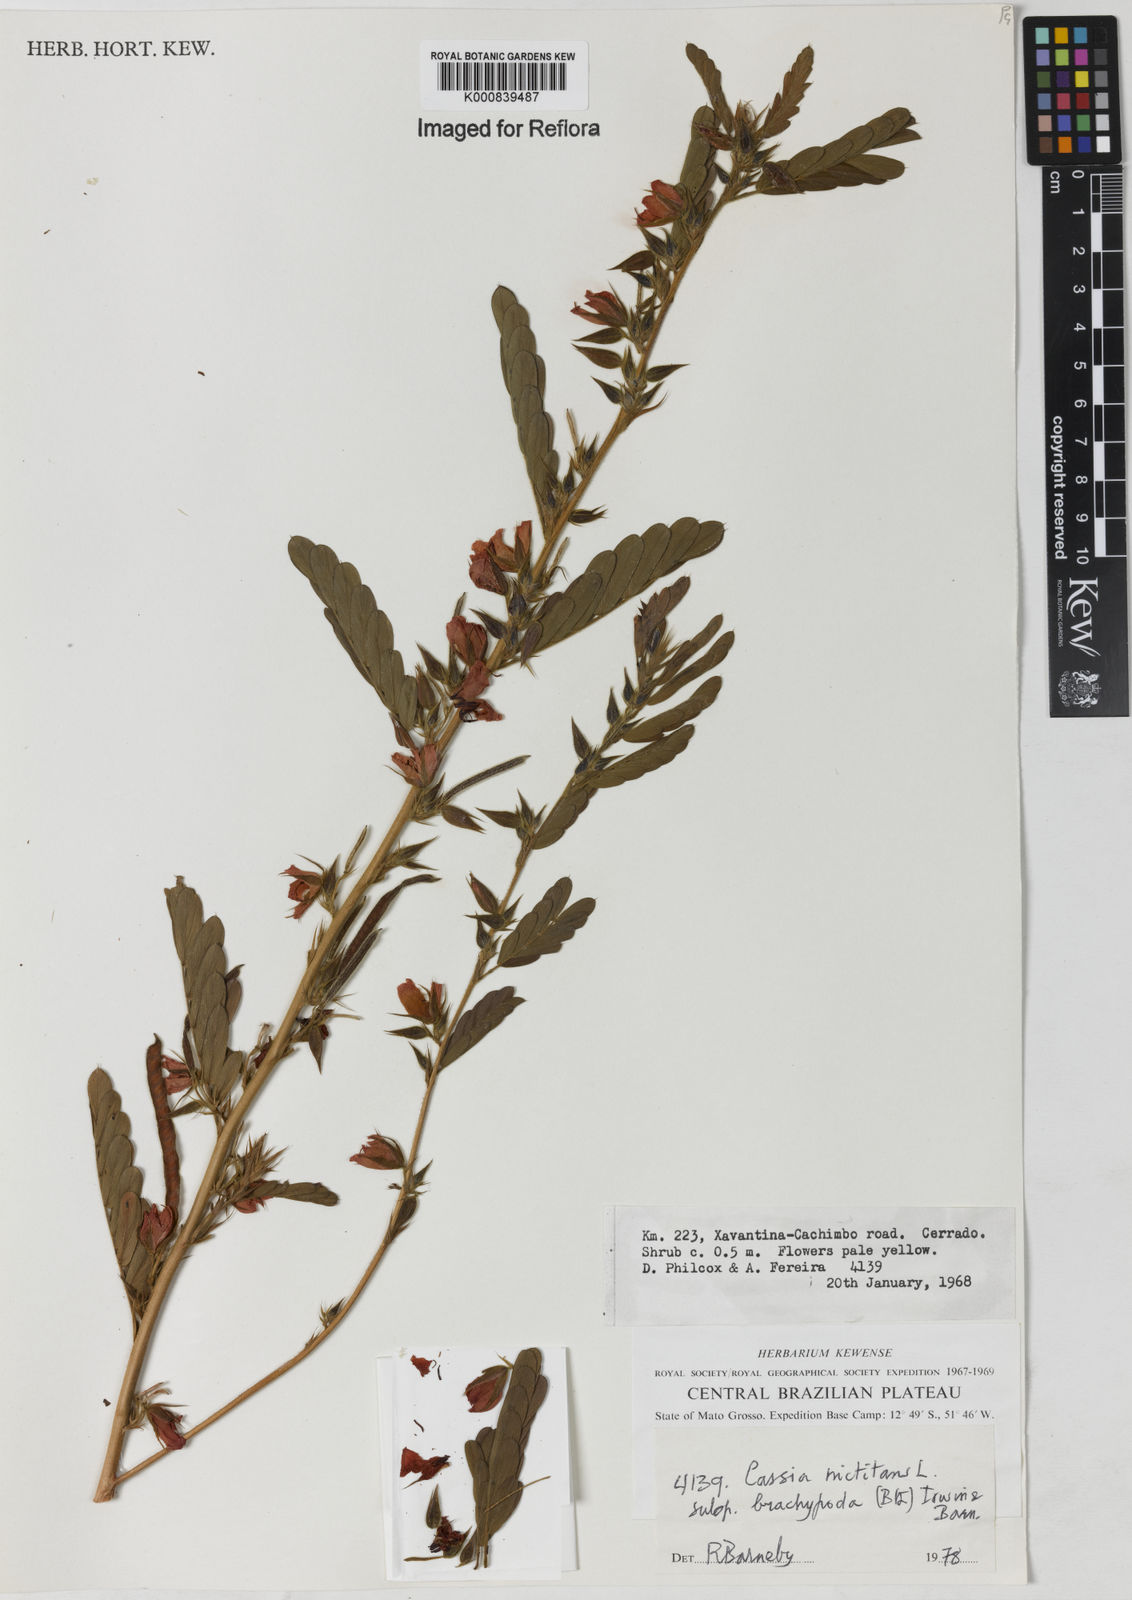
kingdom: Plantae
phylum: Tracheophyta
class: Magnoliopsida
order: Fabales
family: Fabaceae
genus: Chamaecrista
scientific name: Chamaecrista nictitans
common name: Sensitive cassia
